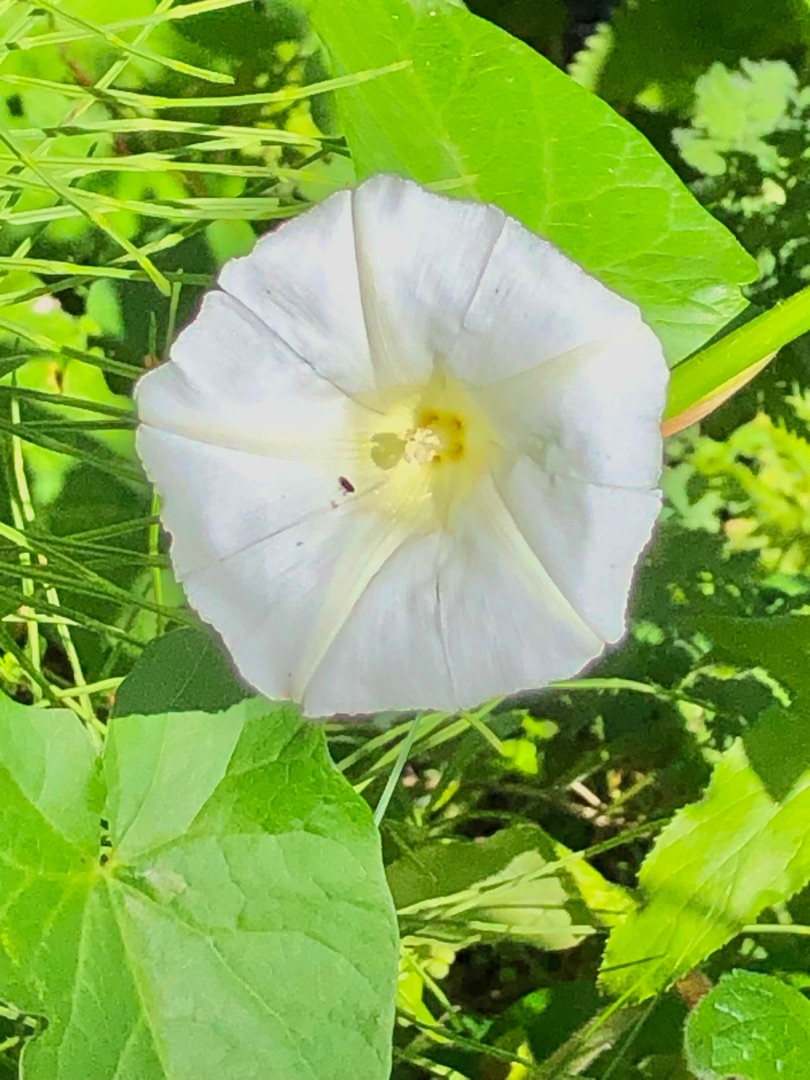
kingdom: Plantae
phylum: Tracheophyta
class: Magnoliopsida
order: Solanales
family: Convolvulaceae
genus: Convolvulus
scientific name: Convolvulus arvensis
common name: Ager-snerle
